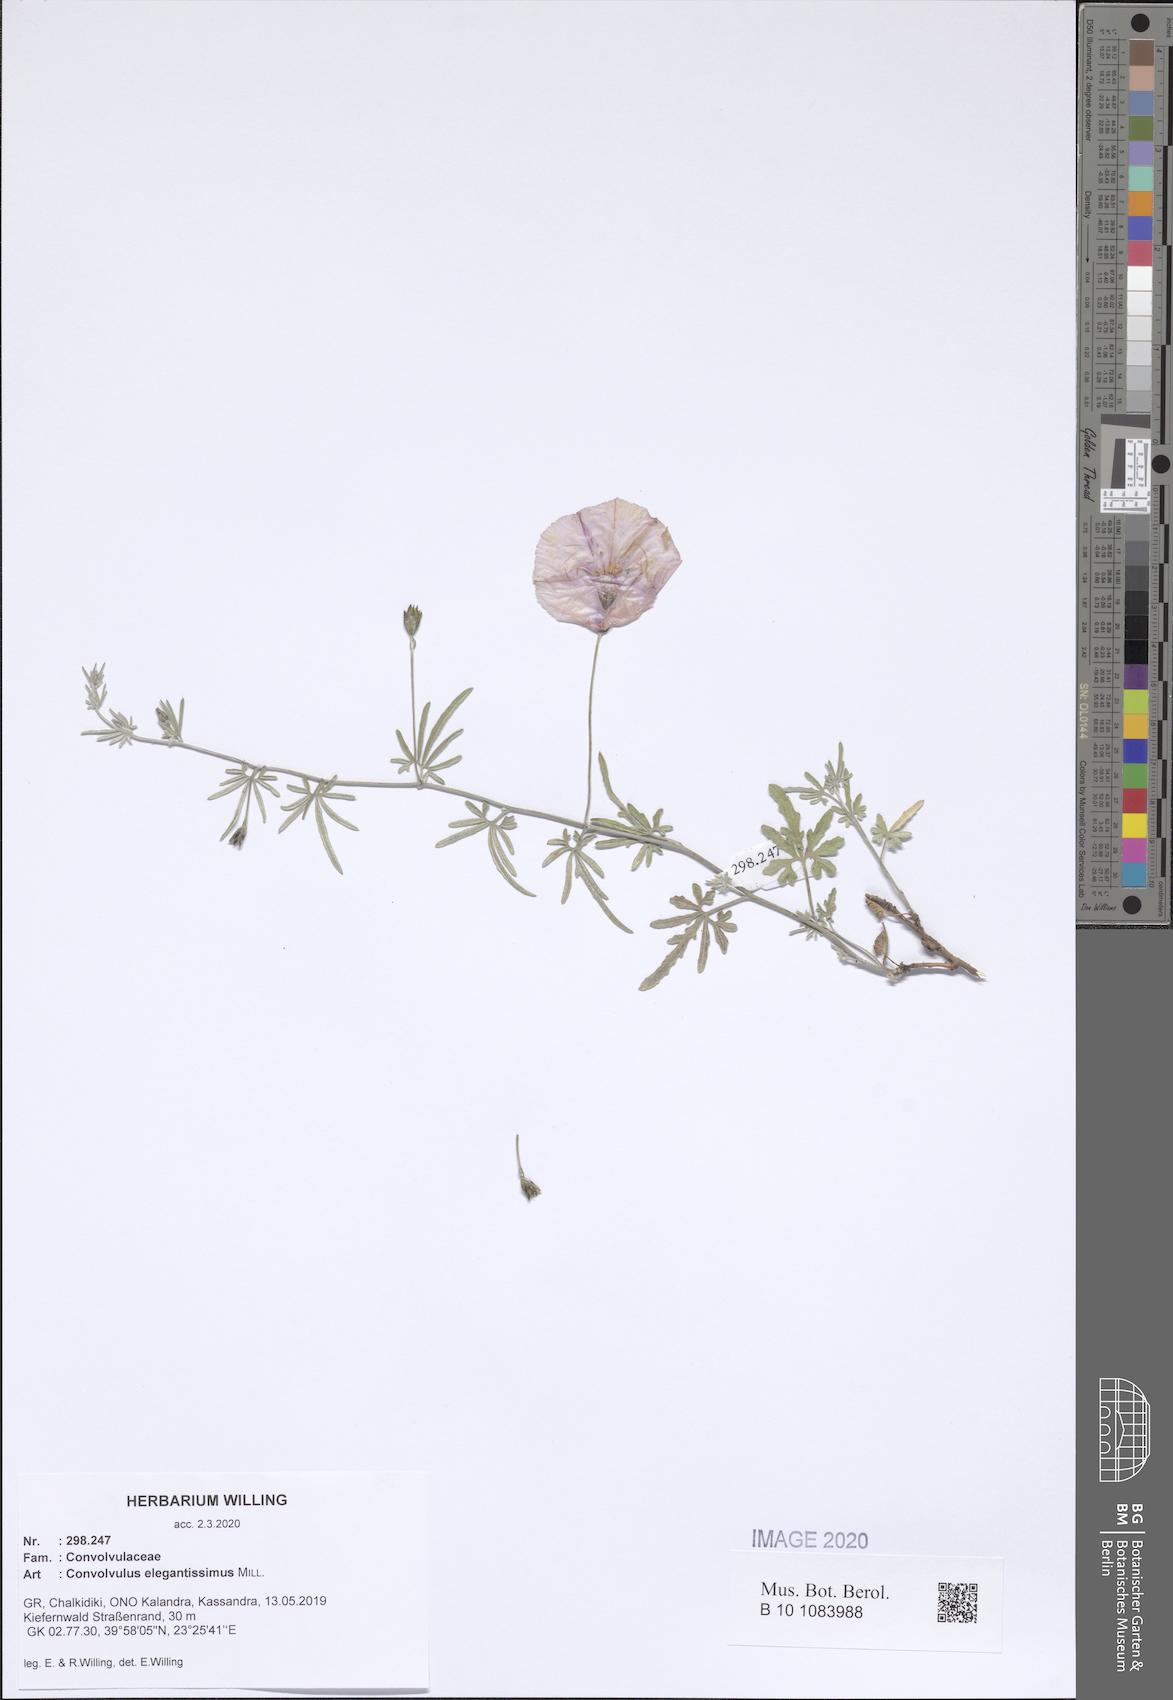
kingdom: Plantae
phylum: Tracheophyta
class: Magnoliopsida
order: Solanales
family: Convolvulaceae
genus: Convolvulus
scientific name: Convolvulus elegantissimus
